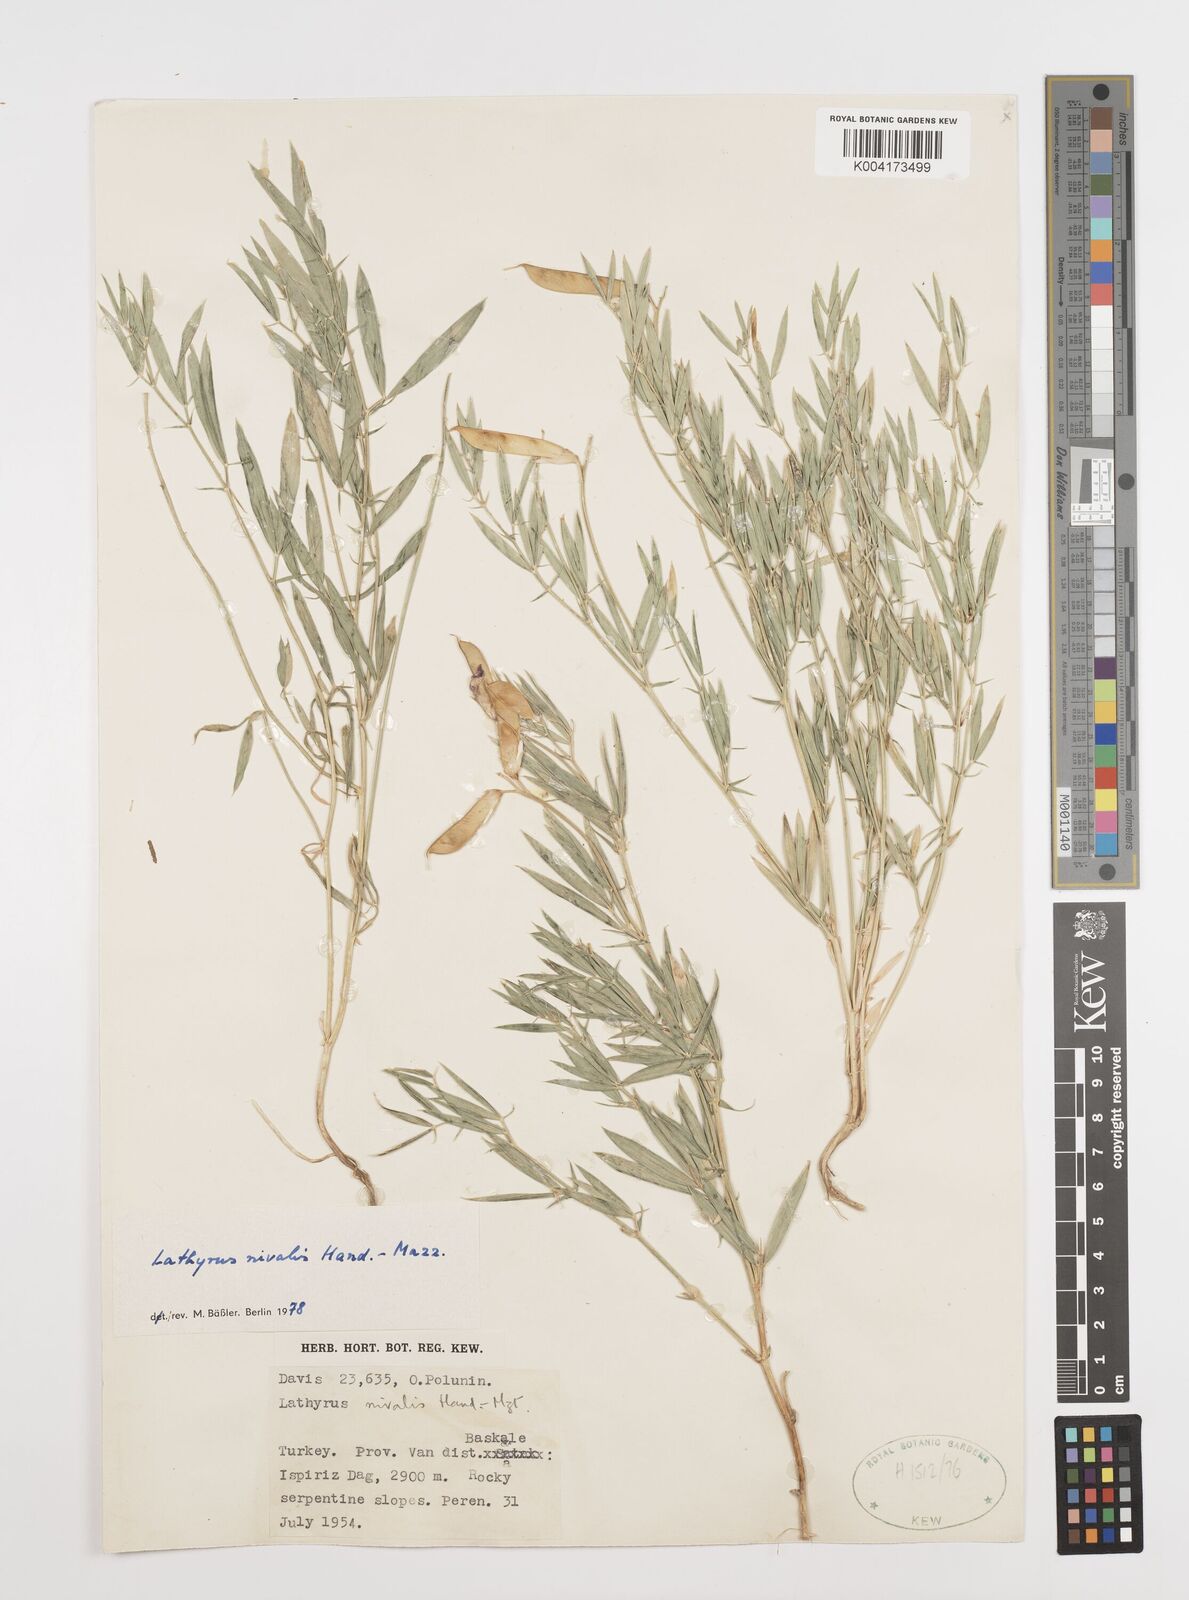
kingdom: Plantae
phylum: Tracheophyta
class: Magnoliopsida
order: Fabales
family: Fabaceae
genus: Lathyrus
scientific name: Lathyrus nivalis
